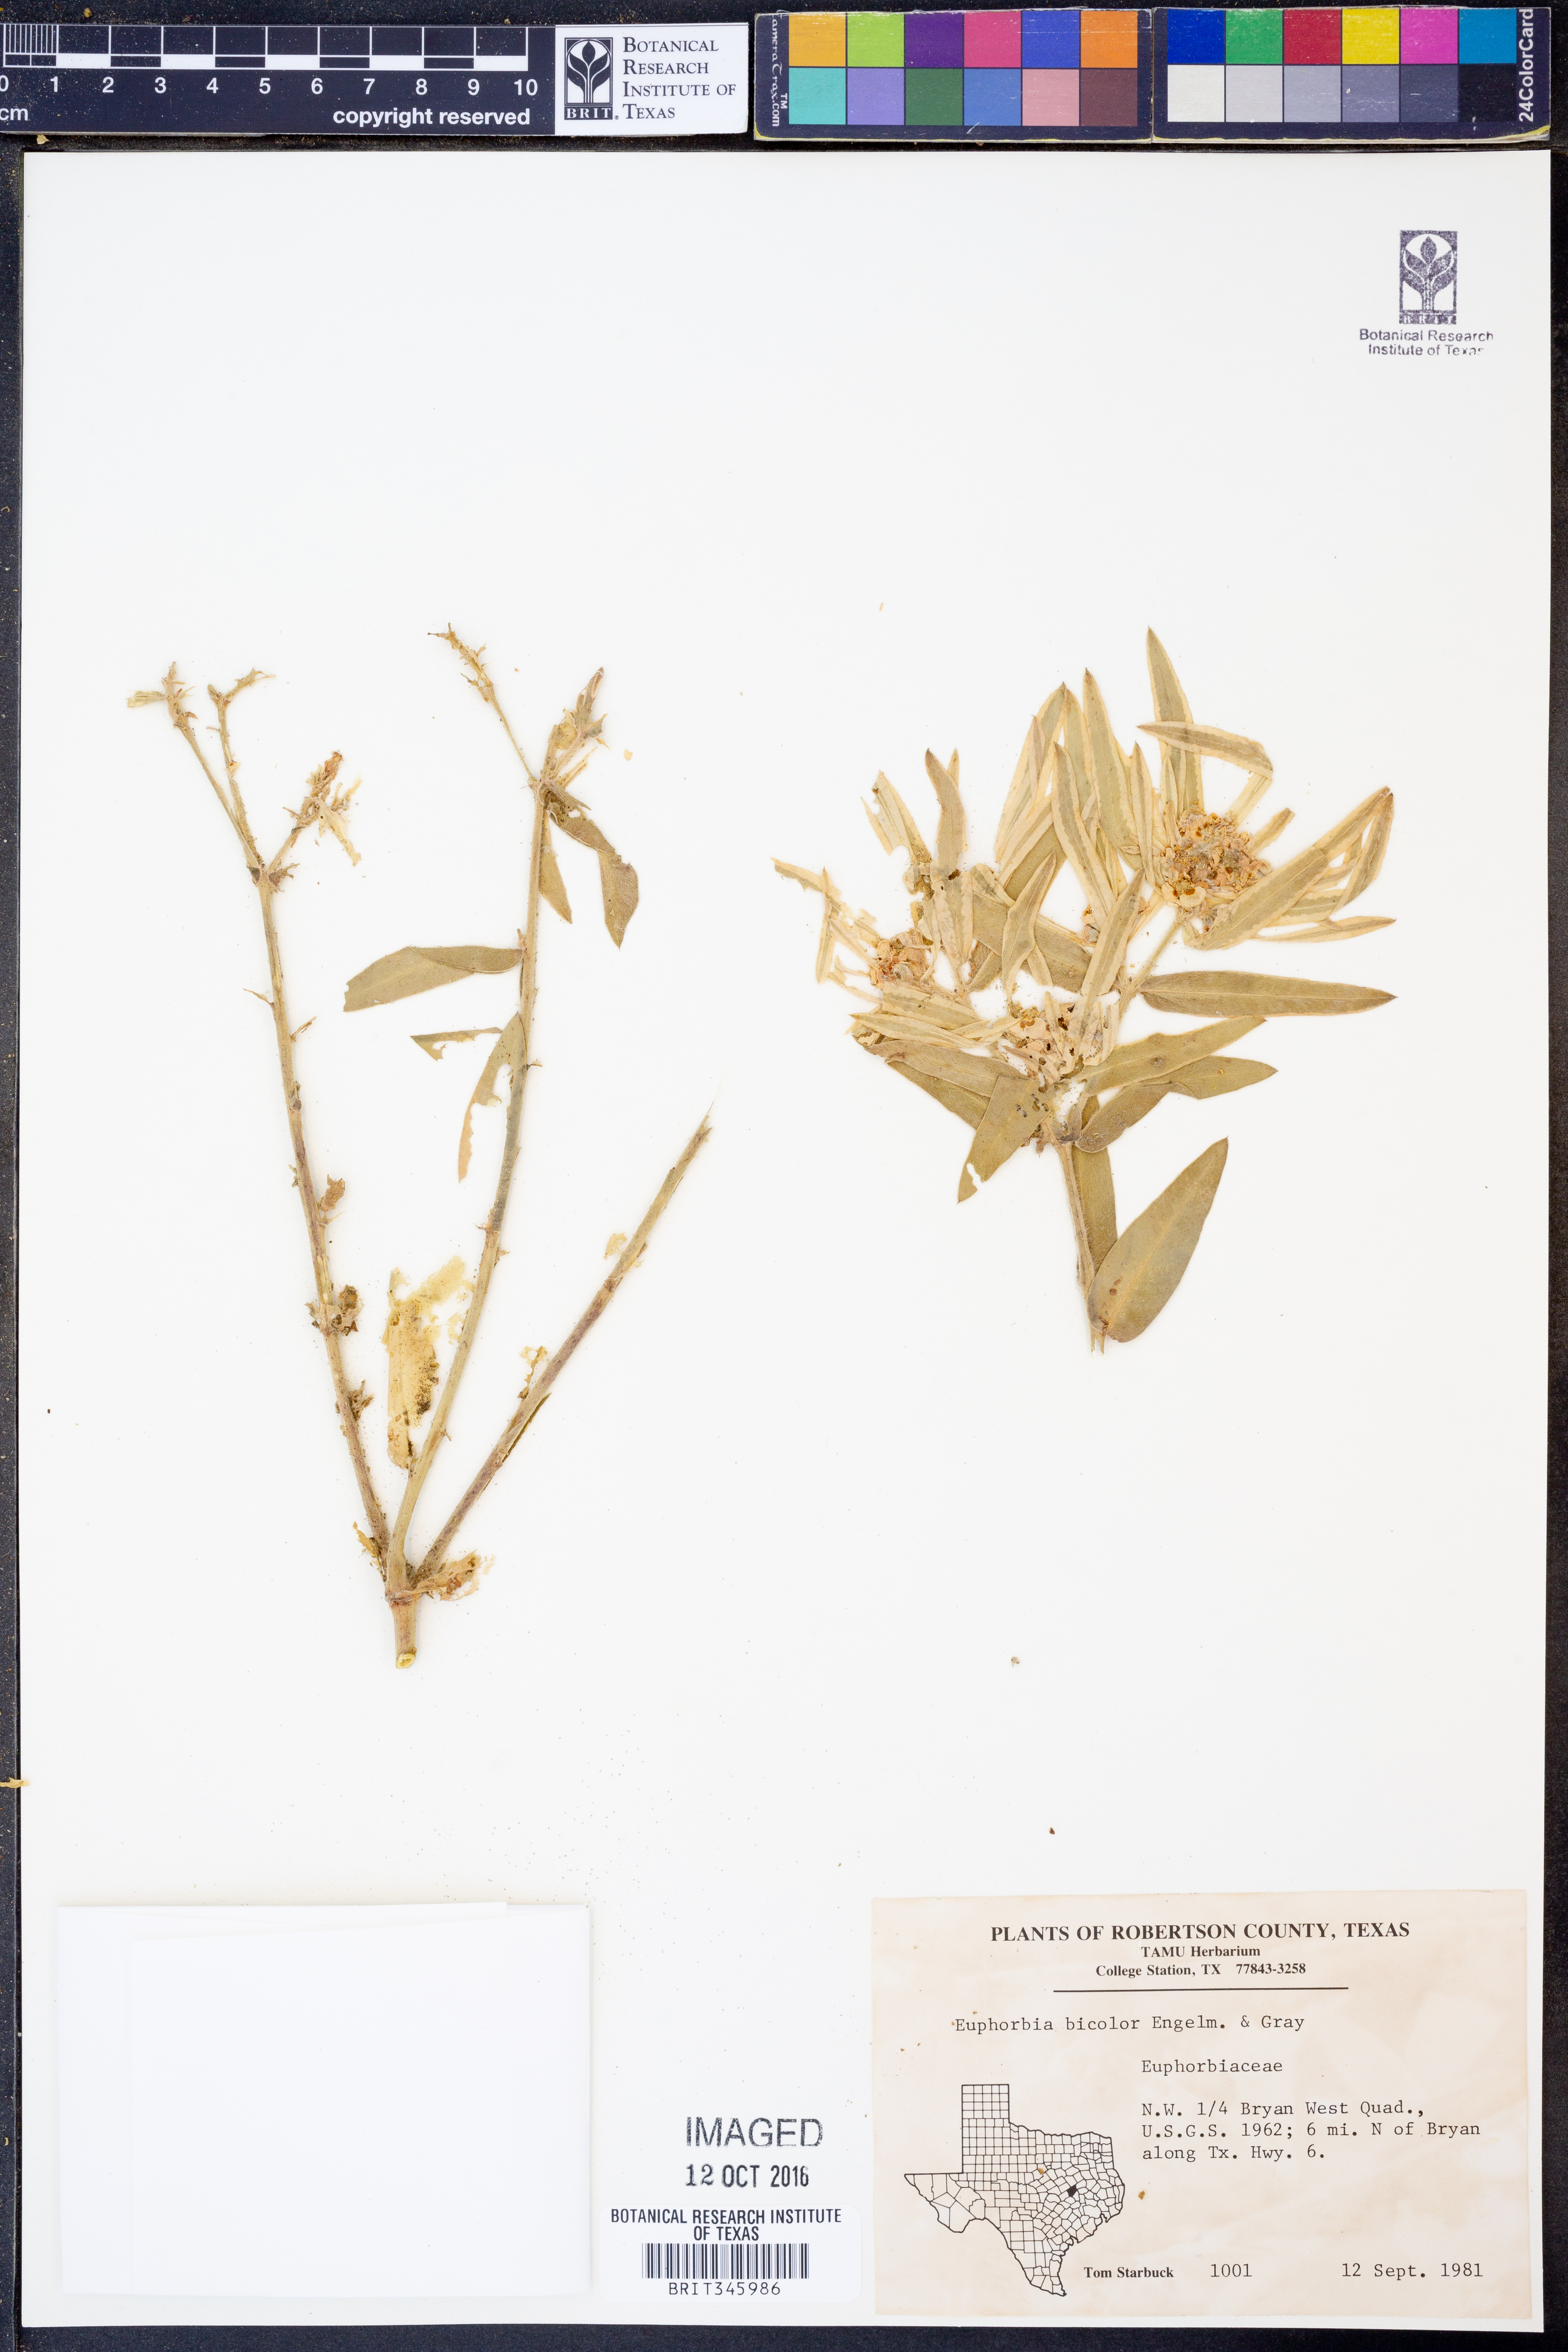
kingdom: Plantae
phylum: Tracheophyta
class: Magnoliopsida
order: Malpighiales
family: Euphorbiaceae
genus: Euphorbia
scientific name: Euphorbia bicolor
